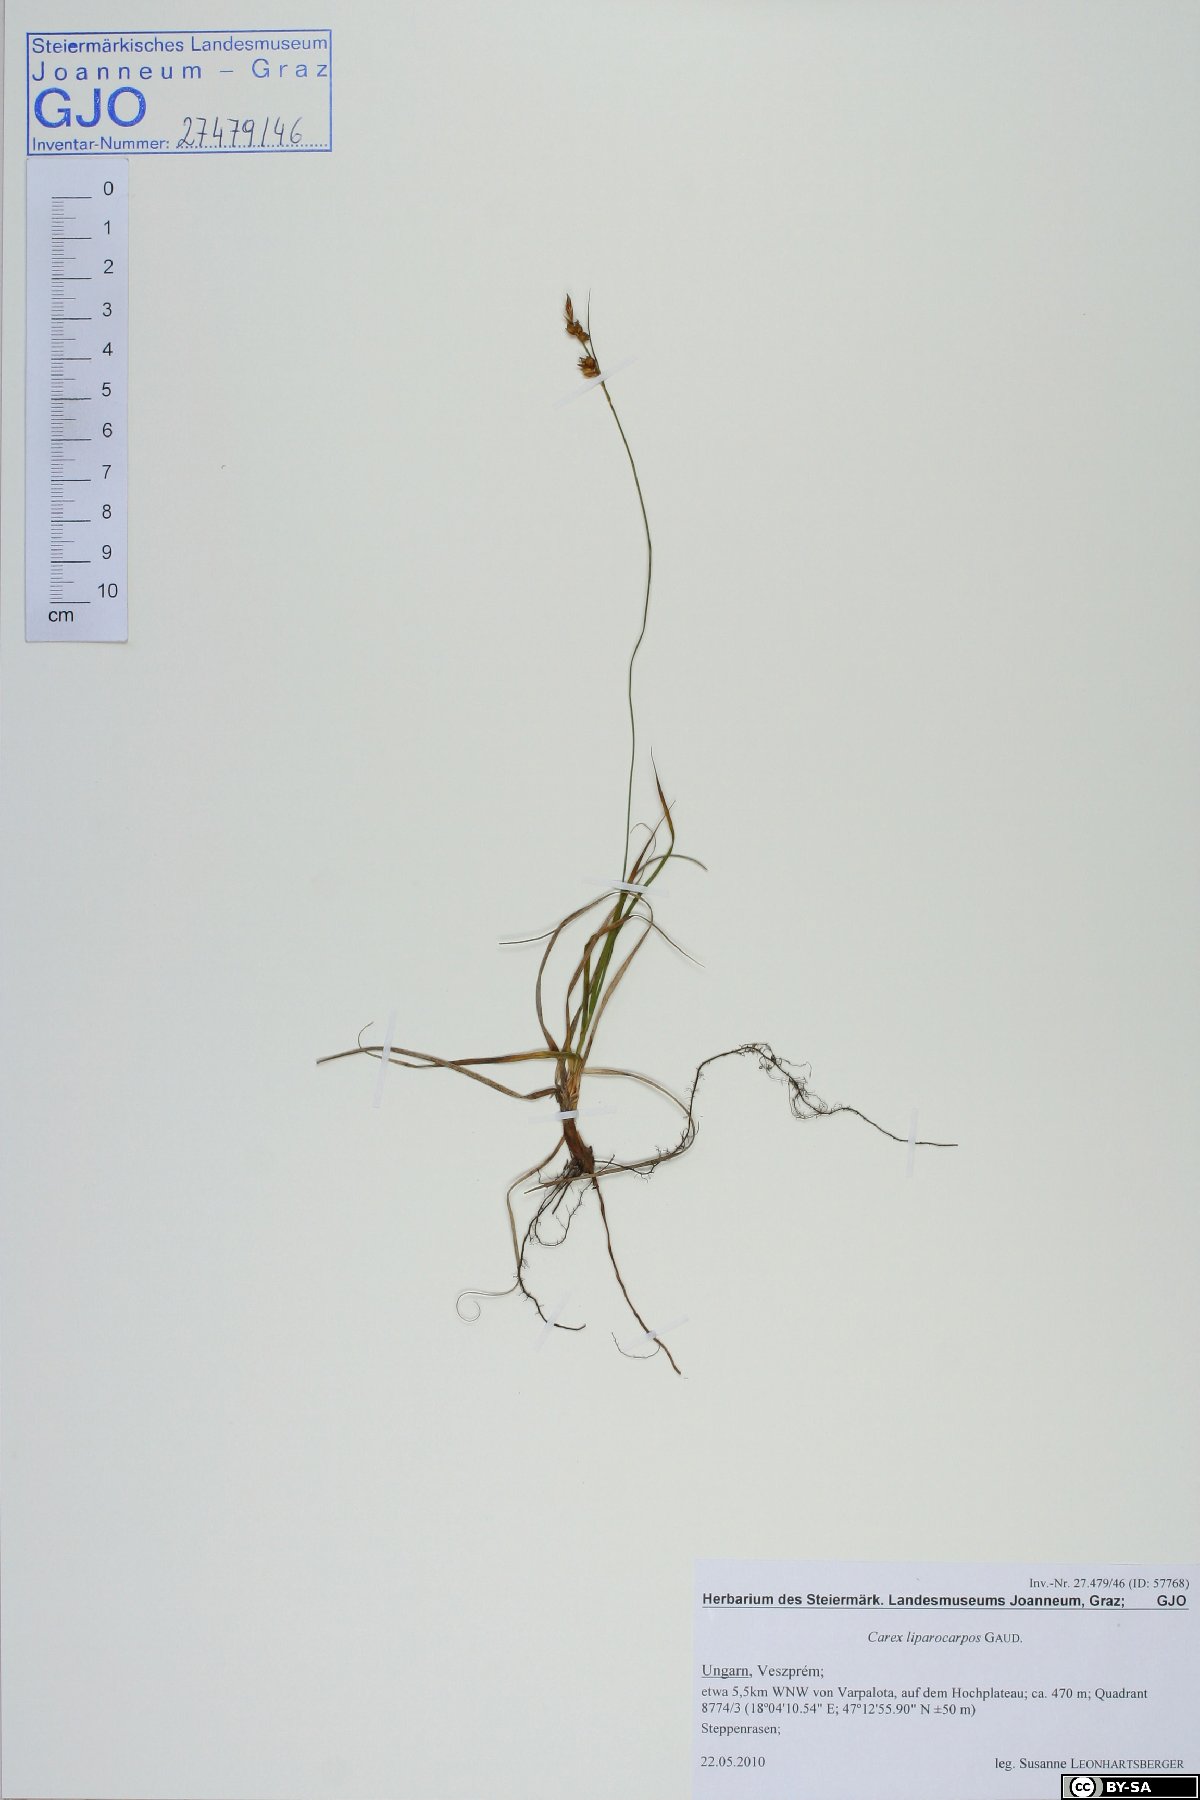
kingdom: Plantae
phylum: Tracheophyta
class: Liliopsida
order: Poales
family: Cyperaceae
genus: Carex
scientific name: Carex liparocarpos
